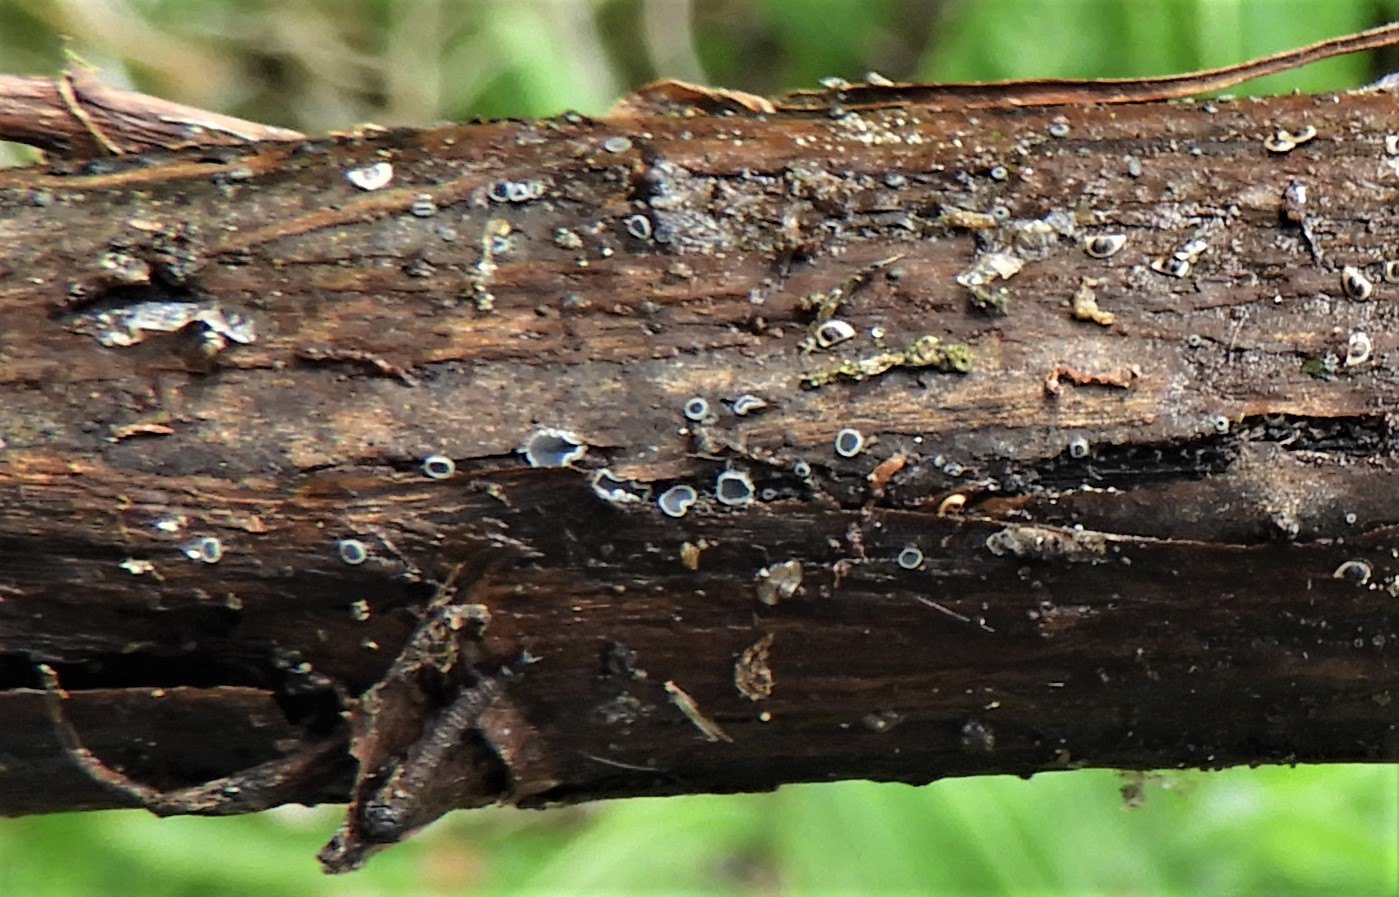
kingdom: Fungi
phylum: Ascomycota
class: Leotiomycetes
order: Helotiales
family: Dermateaceae
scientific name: Dermateaceae
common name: gråskivefamilien
